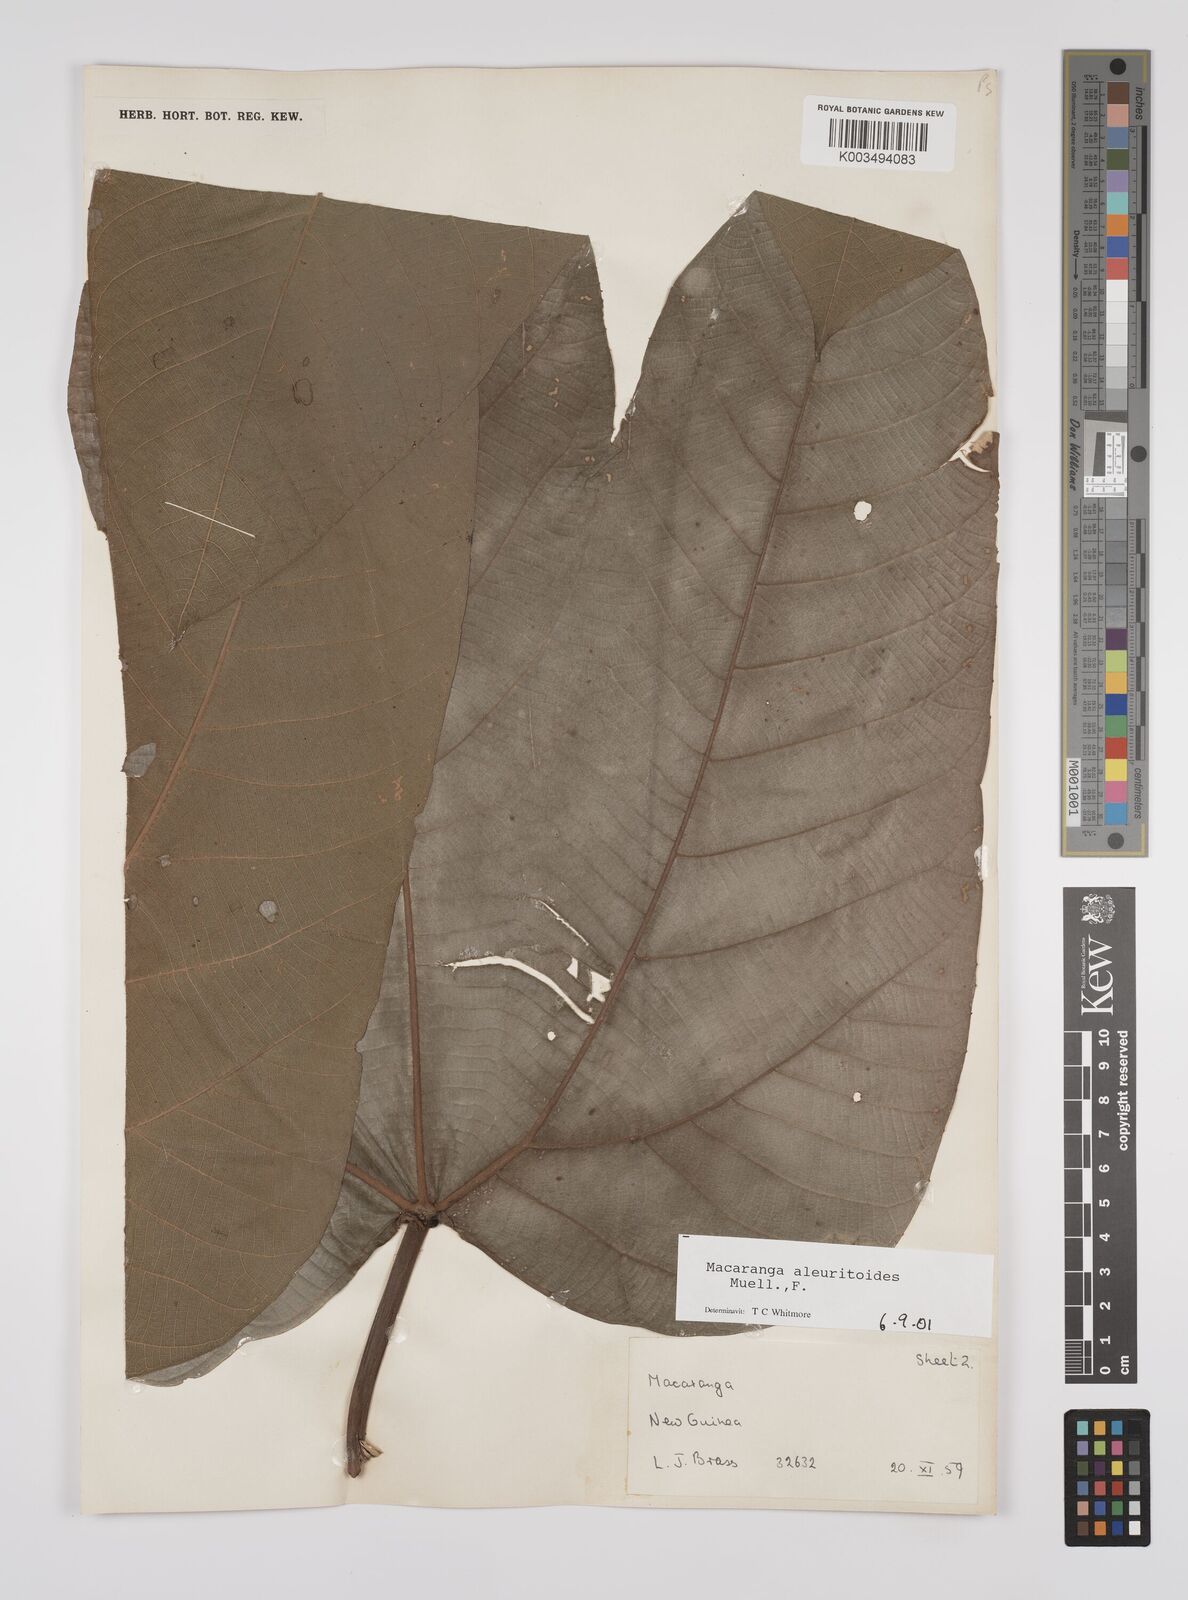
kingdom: Plantae
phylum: Tracheophyta
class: Magnoliopsida
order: Malpighiales
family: Euphorbiaceae
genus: Macaranga
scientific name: Macaranga aleuritoides
